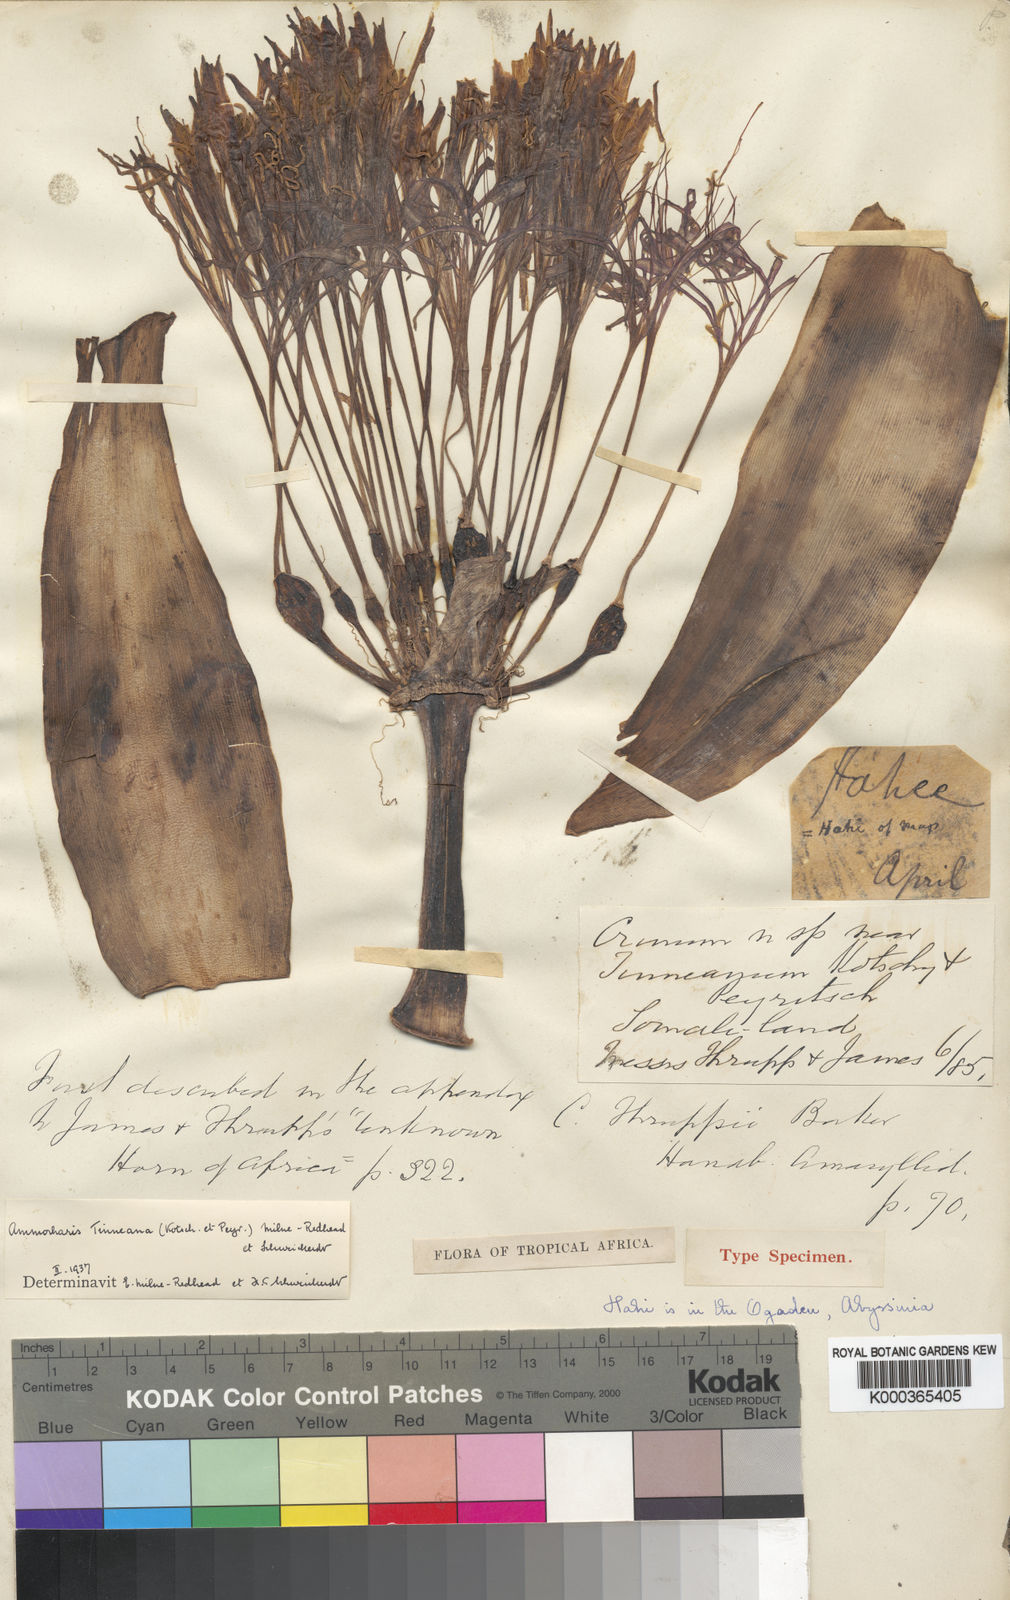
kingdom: Plantae
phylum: Tracheophyta
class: Liliopsida
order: Asparagales
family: Amaryllidaceae
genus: Ammocharis
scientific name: Ammocharis tinneana
